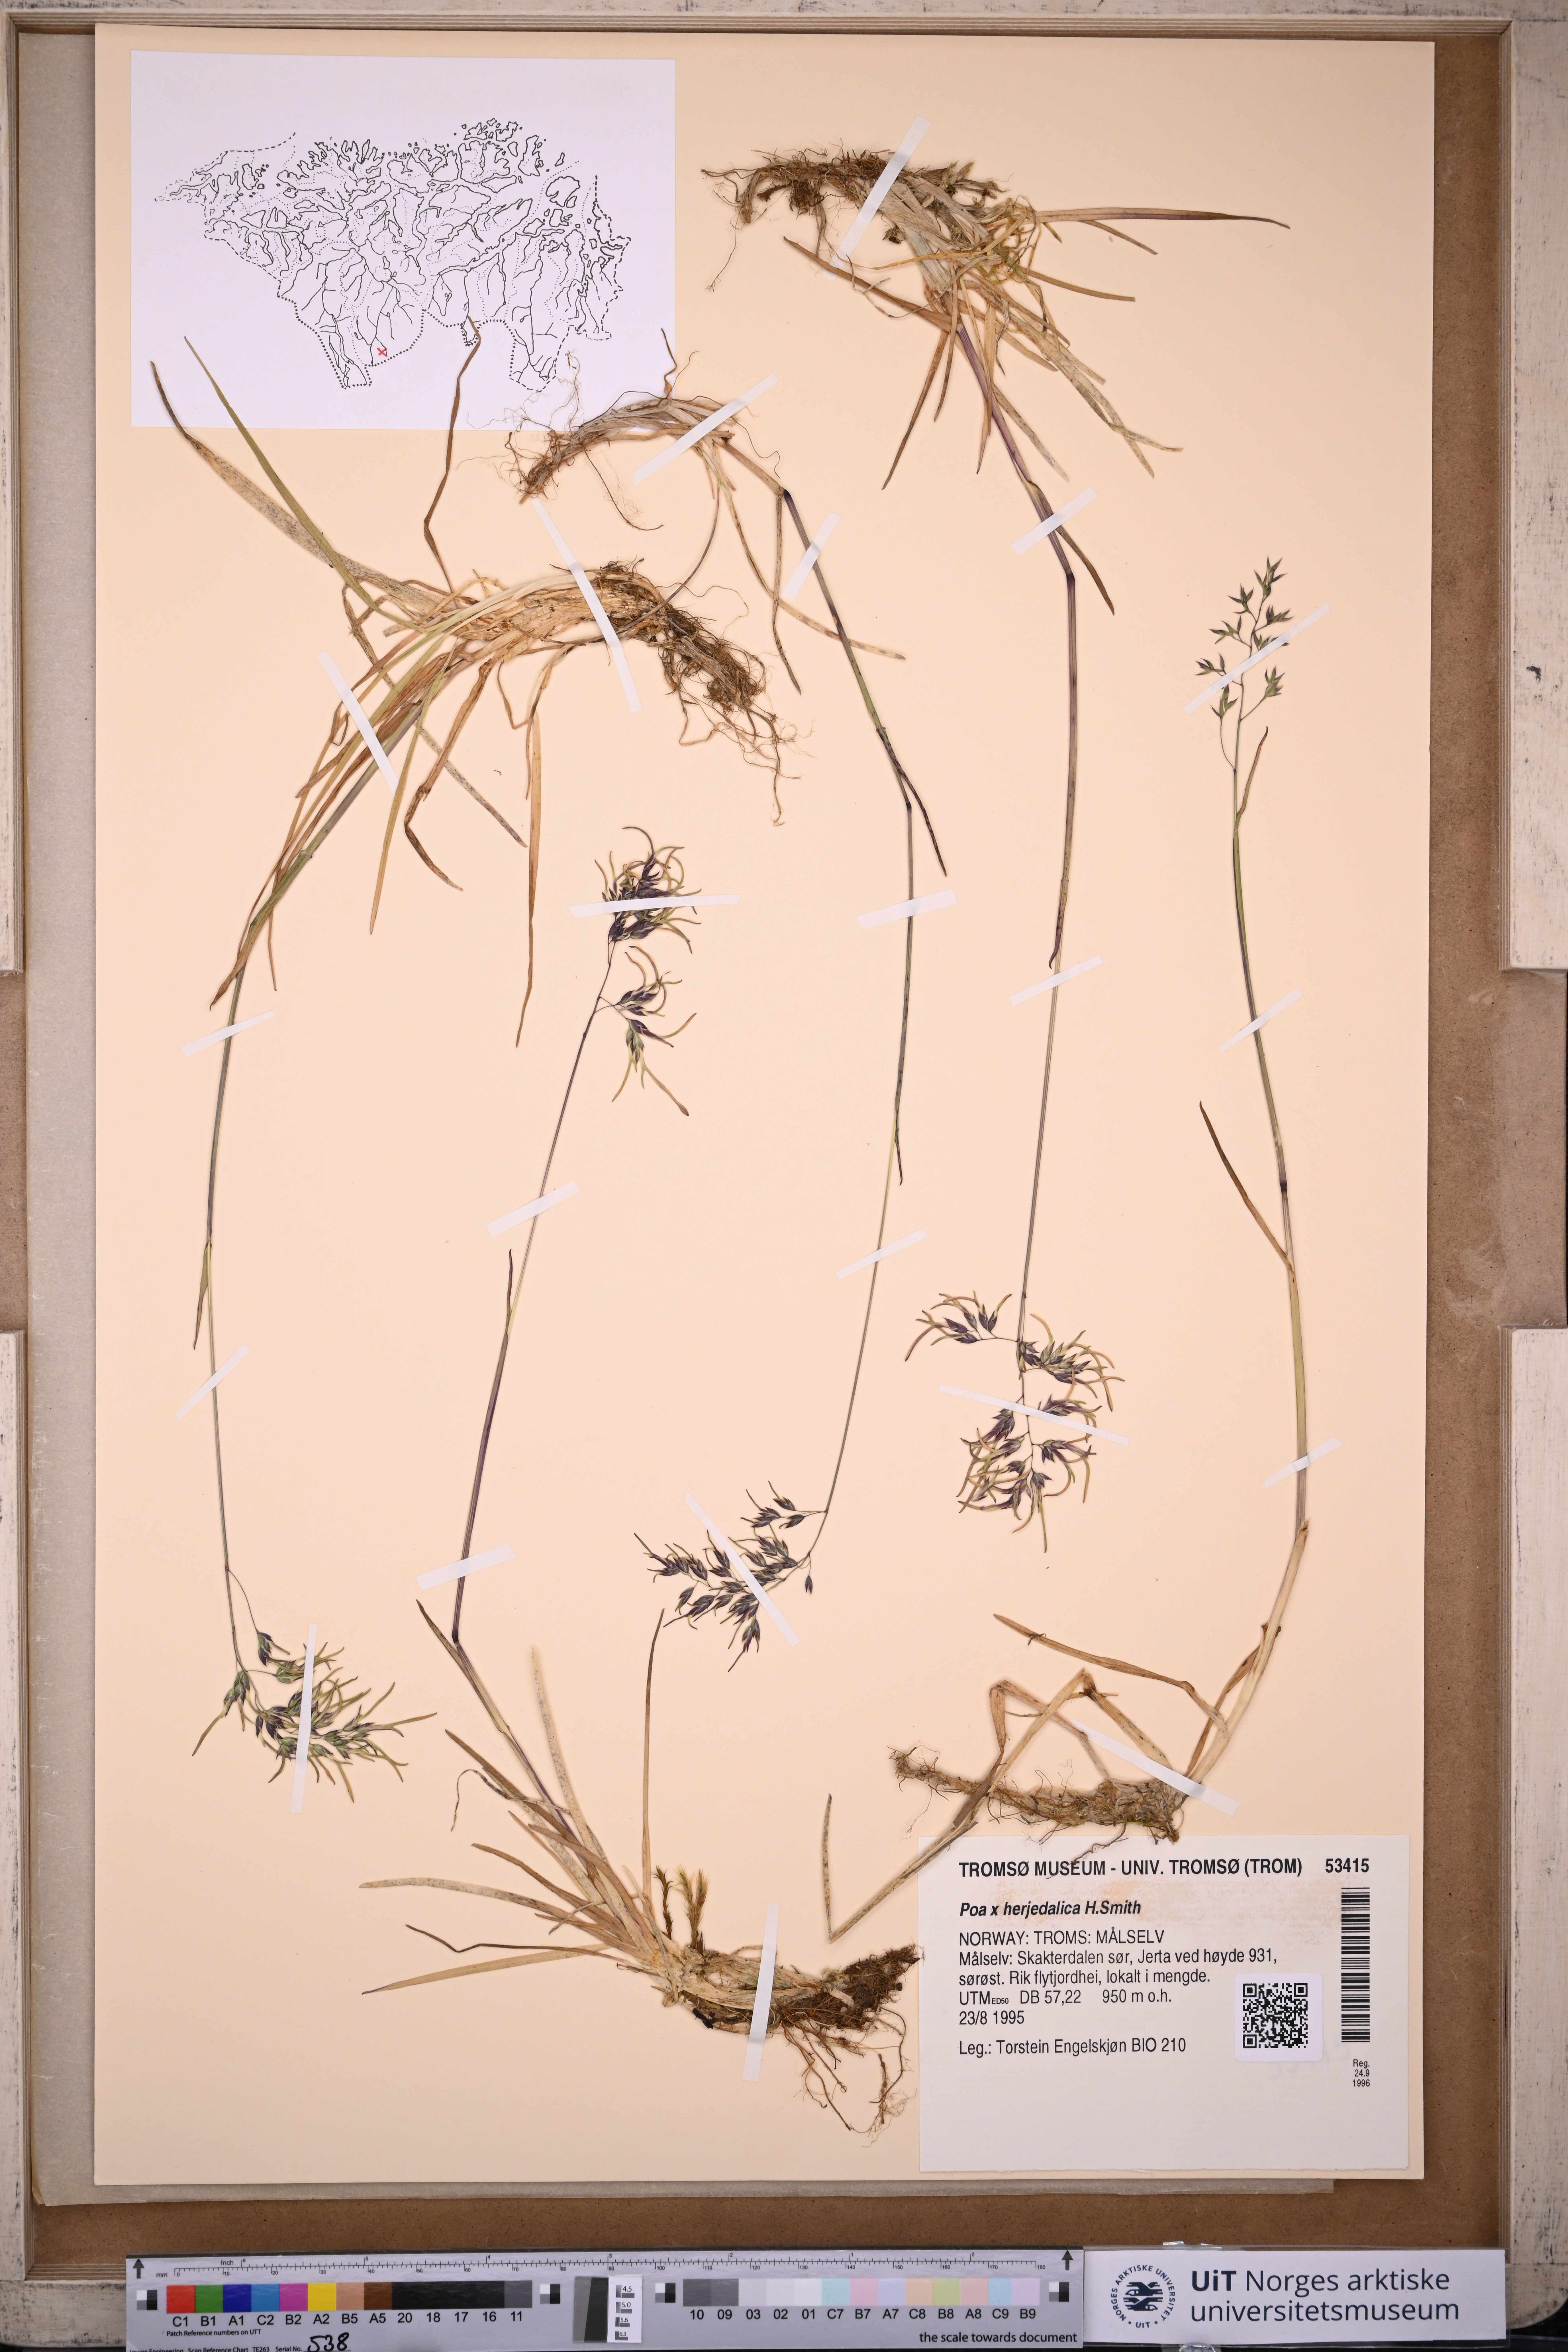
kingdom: Plantae
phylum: Tracheophyta
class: Liliopsida
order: Poales
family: Poaceae
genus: Poa
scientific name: Poa herjedalica
